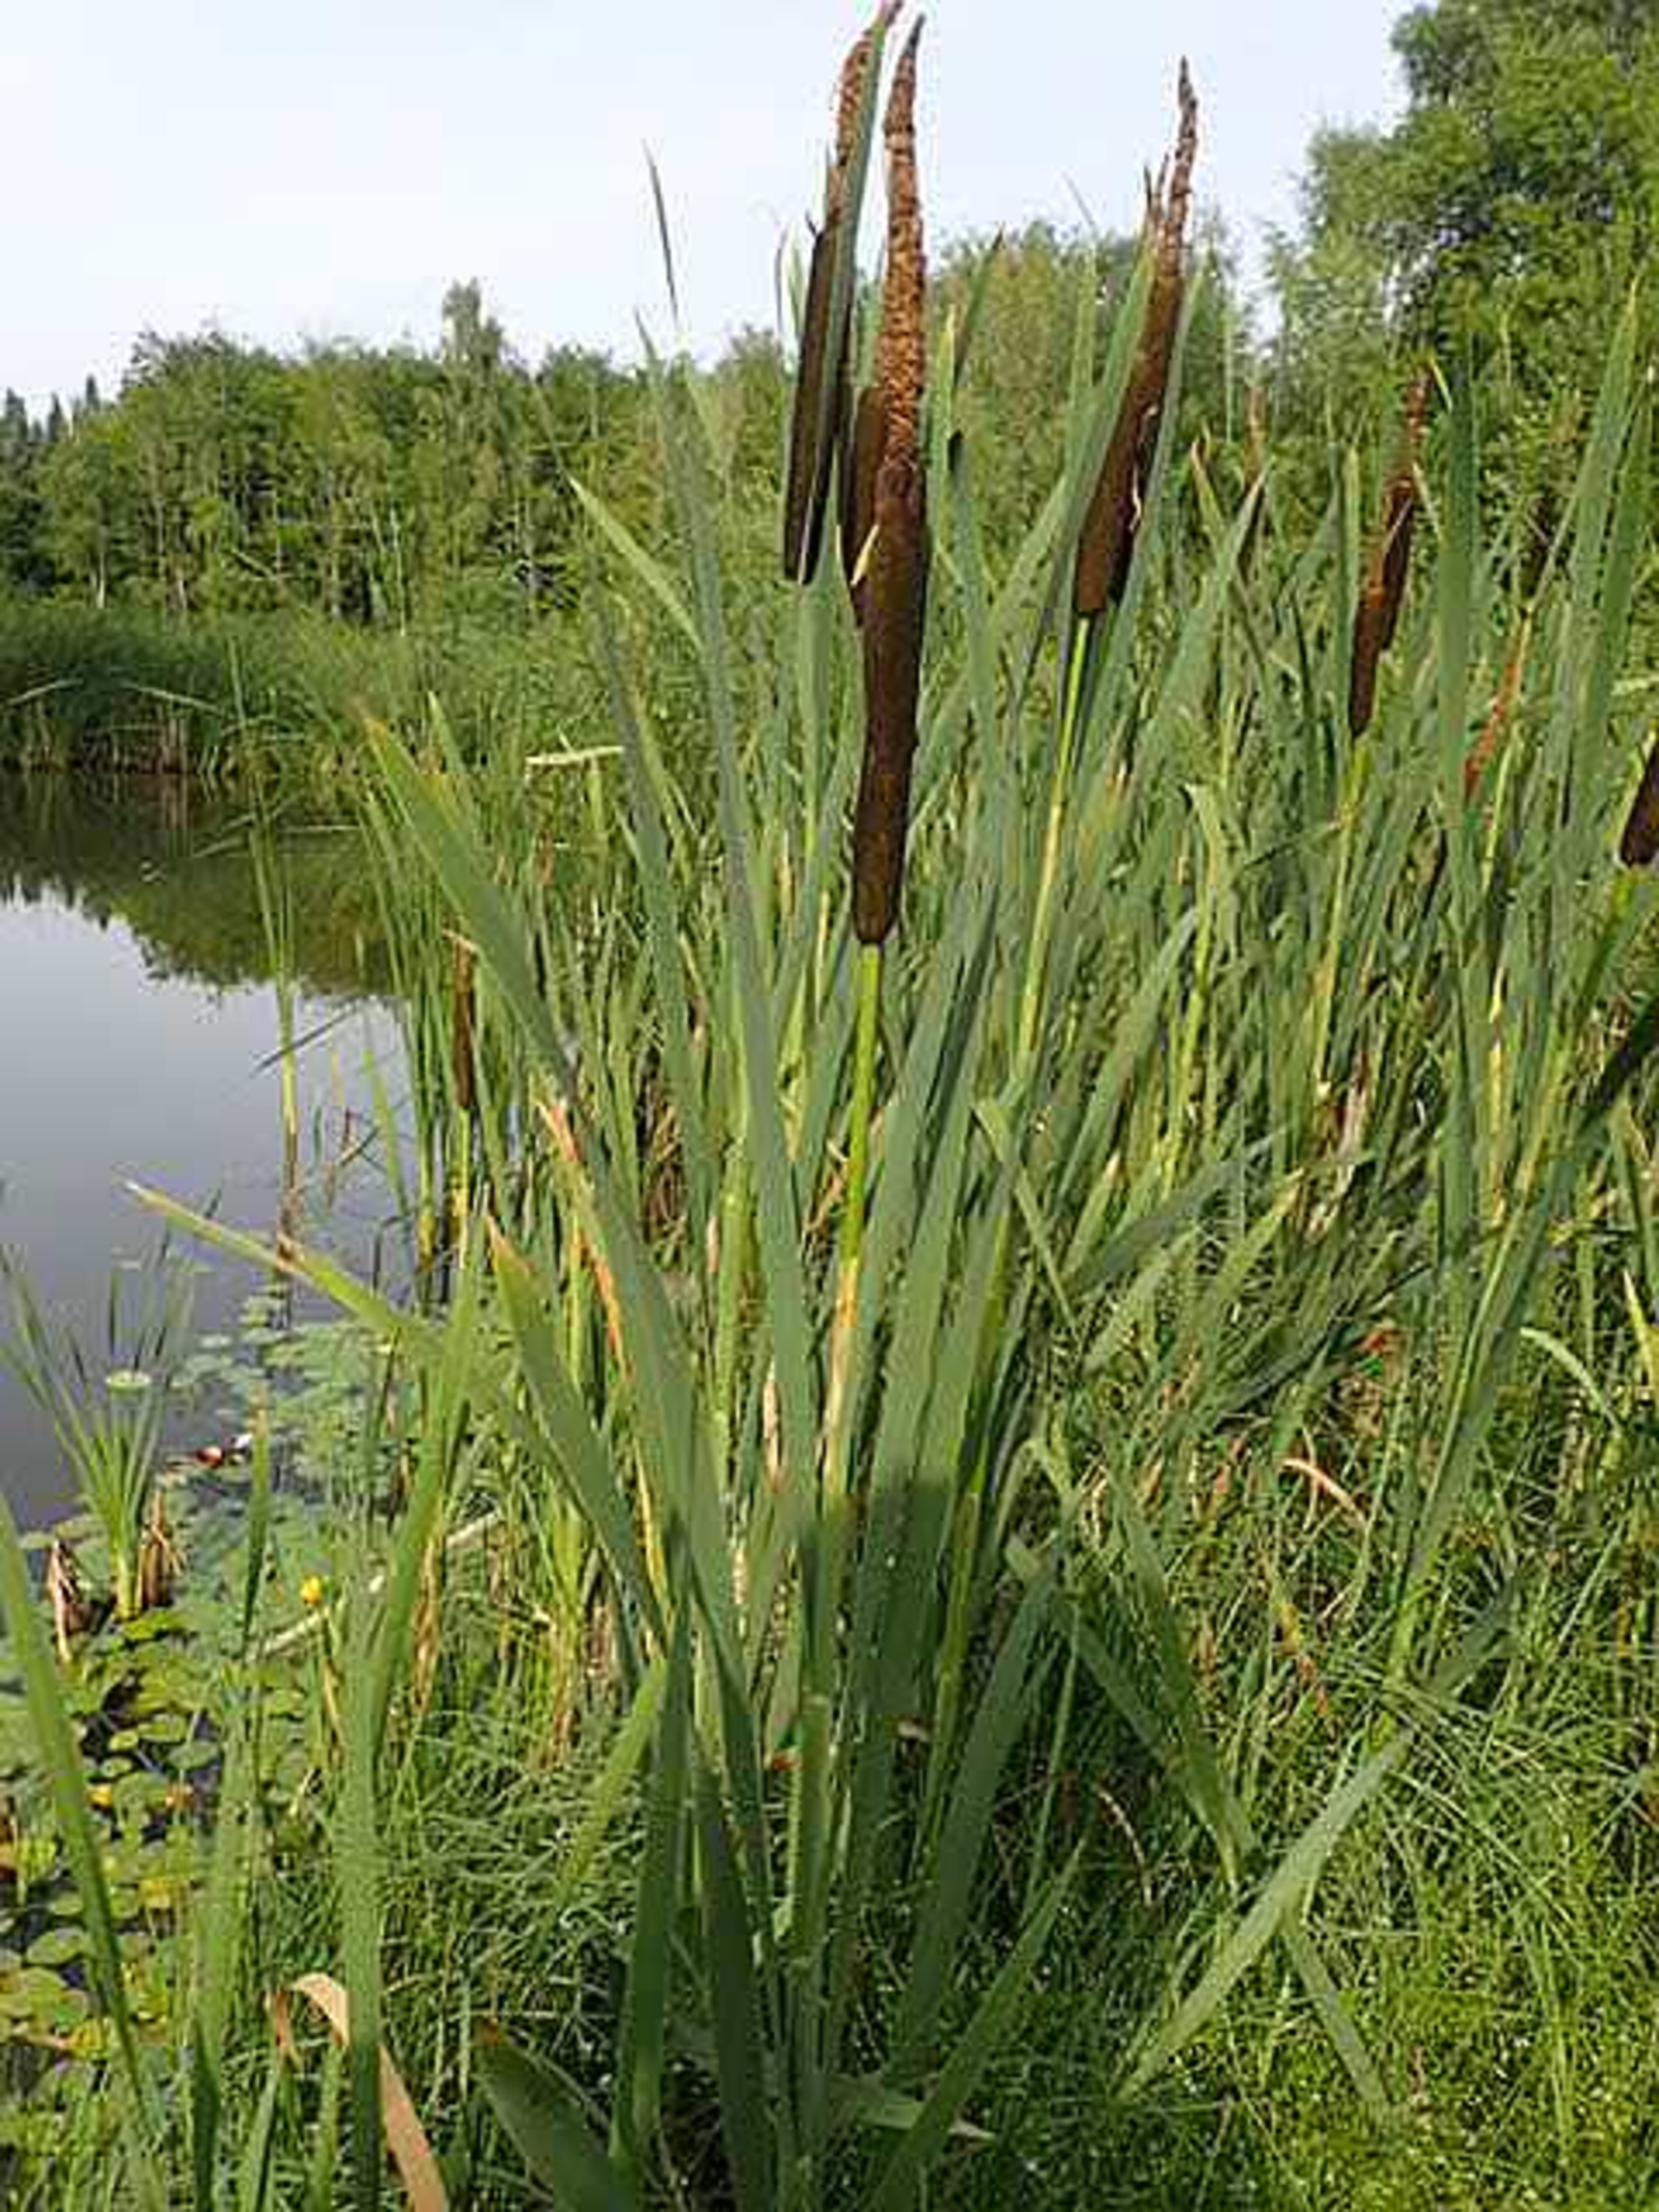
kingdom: Plantae
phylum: Tracheophyta
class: Liliopsida
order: Poales
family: Typhaceae
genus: Typha
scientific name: Typha latifolia
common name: Bredbladet dunhammer
